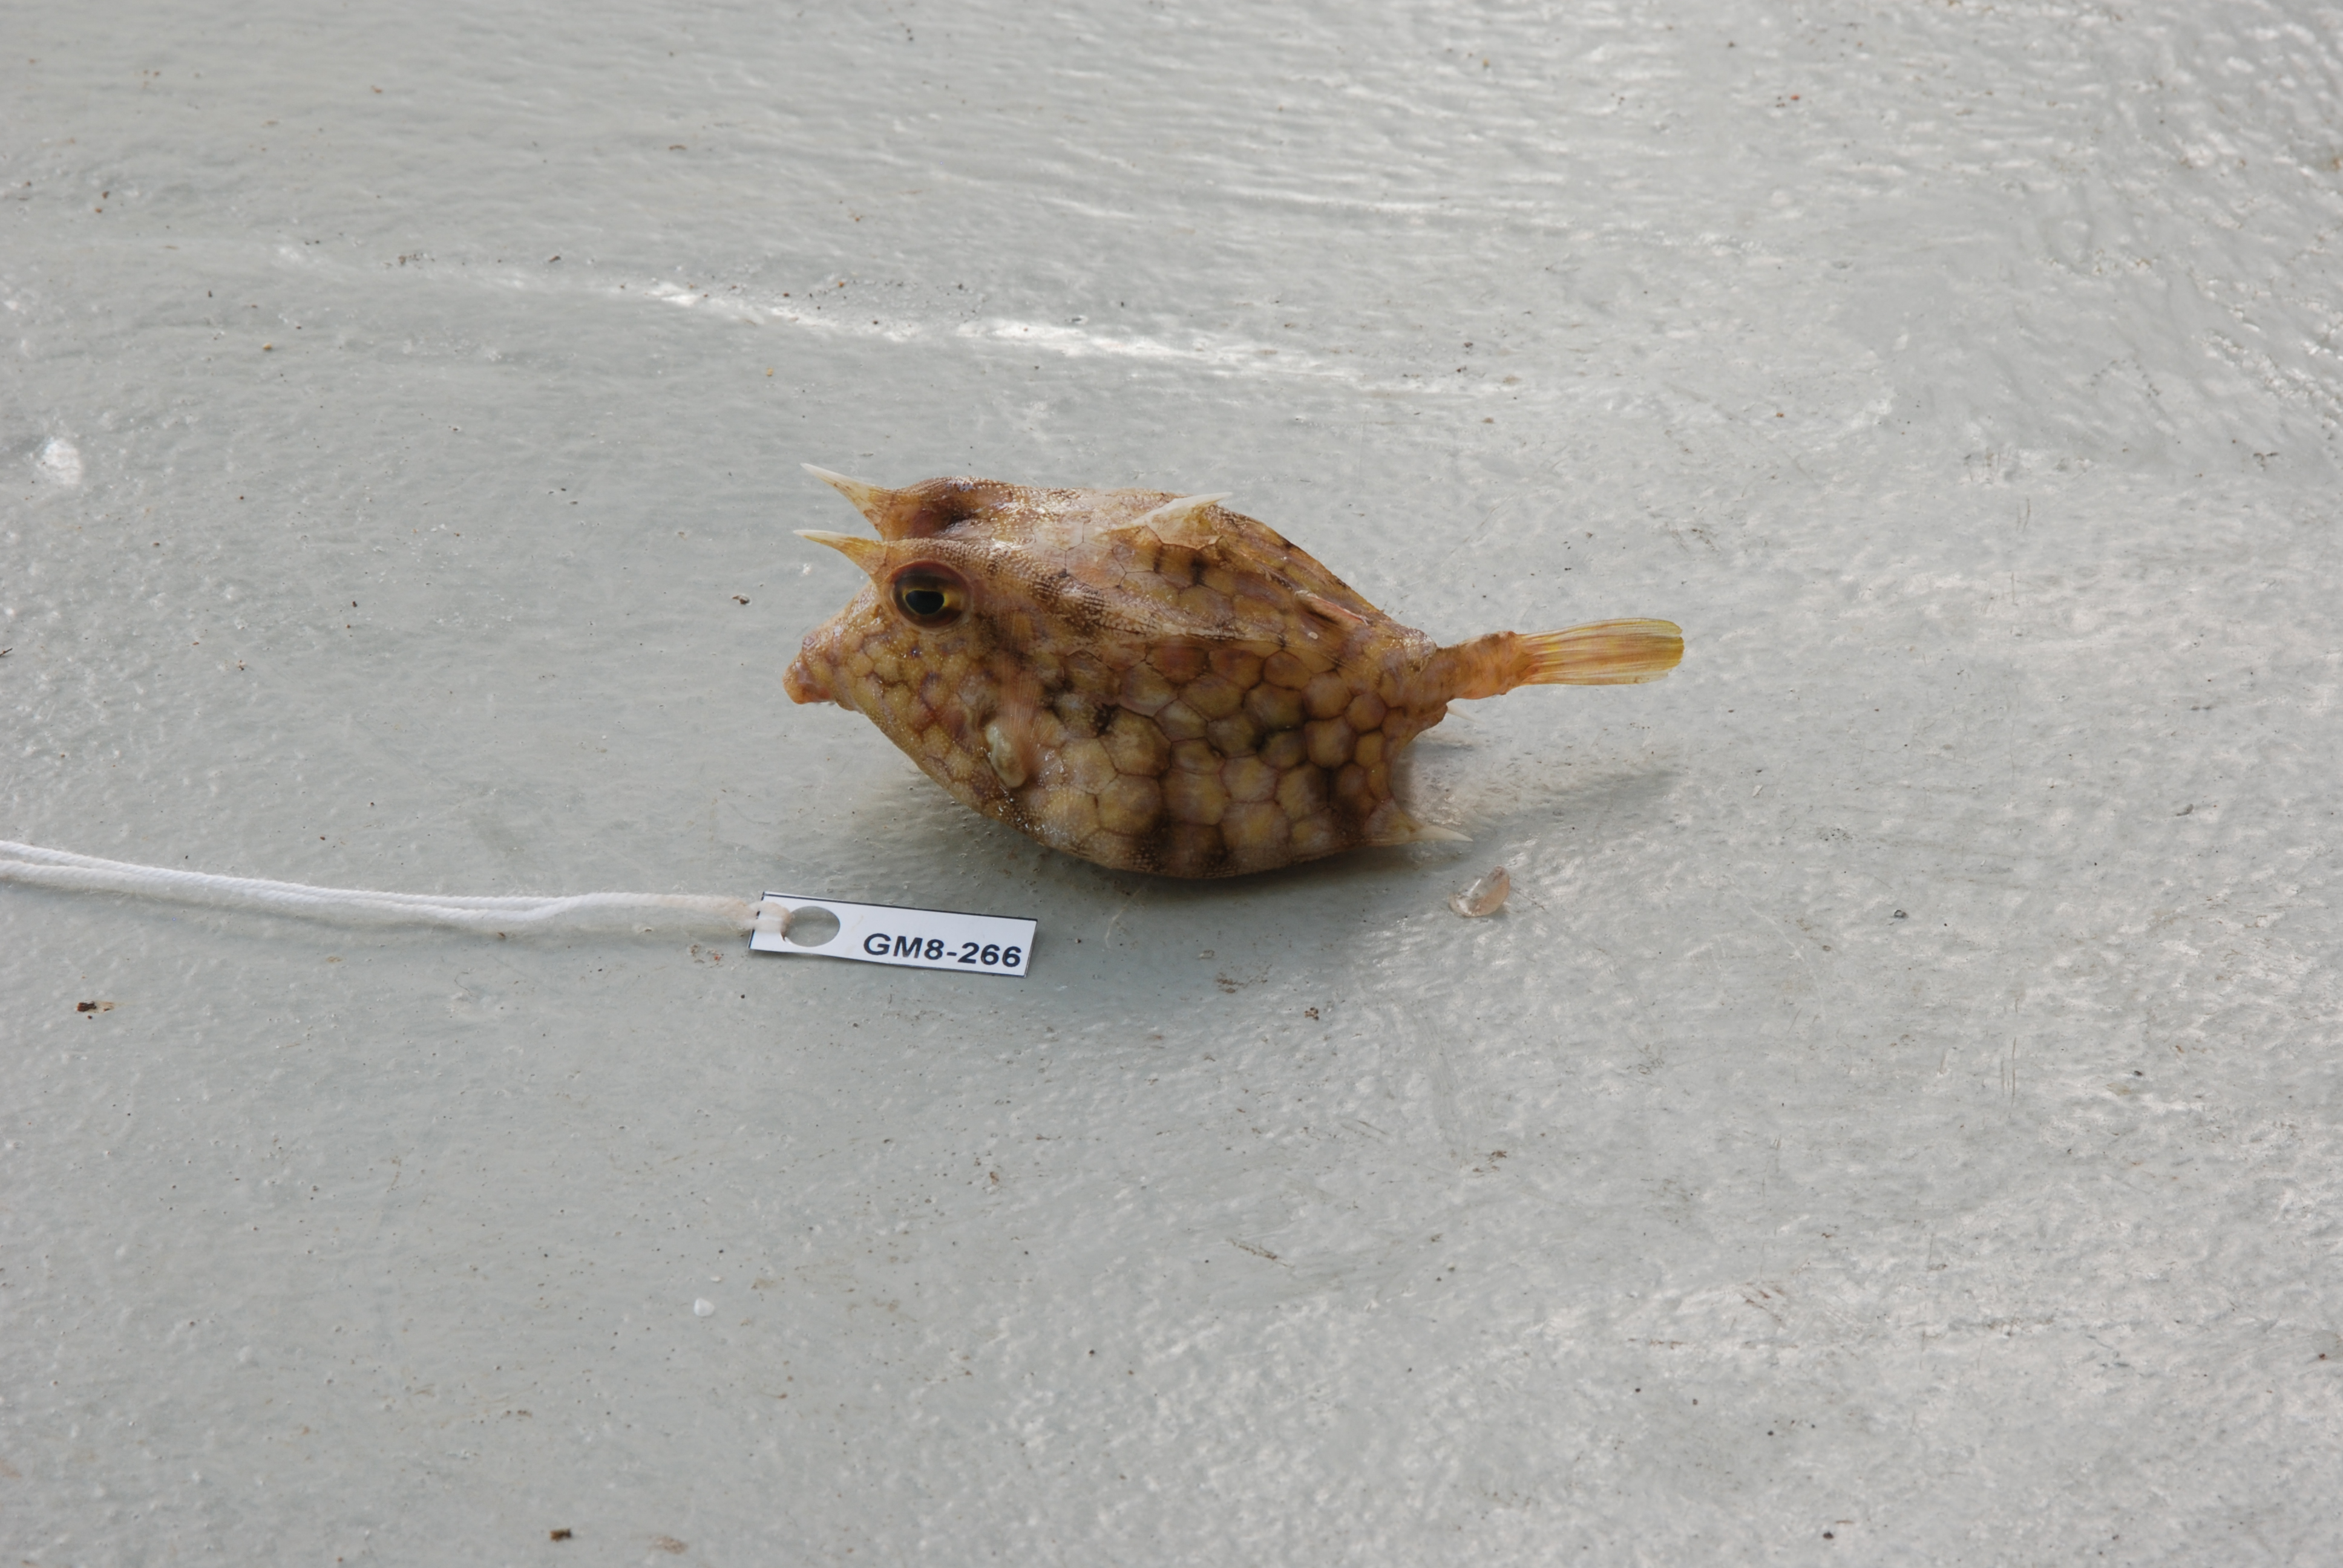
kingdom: Animalia
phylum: Chordata
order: Tetraodontiformes
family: Ostraciidae
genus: Lactoria
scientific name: Lactoria fornasini
